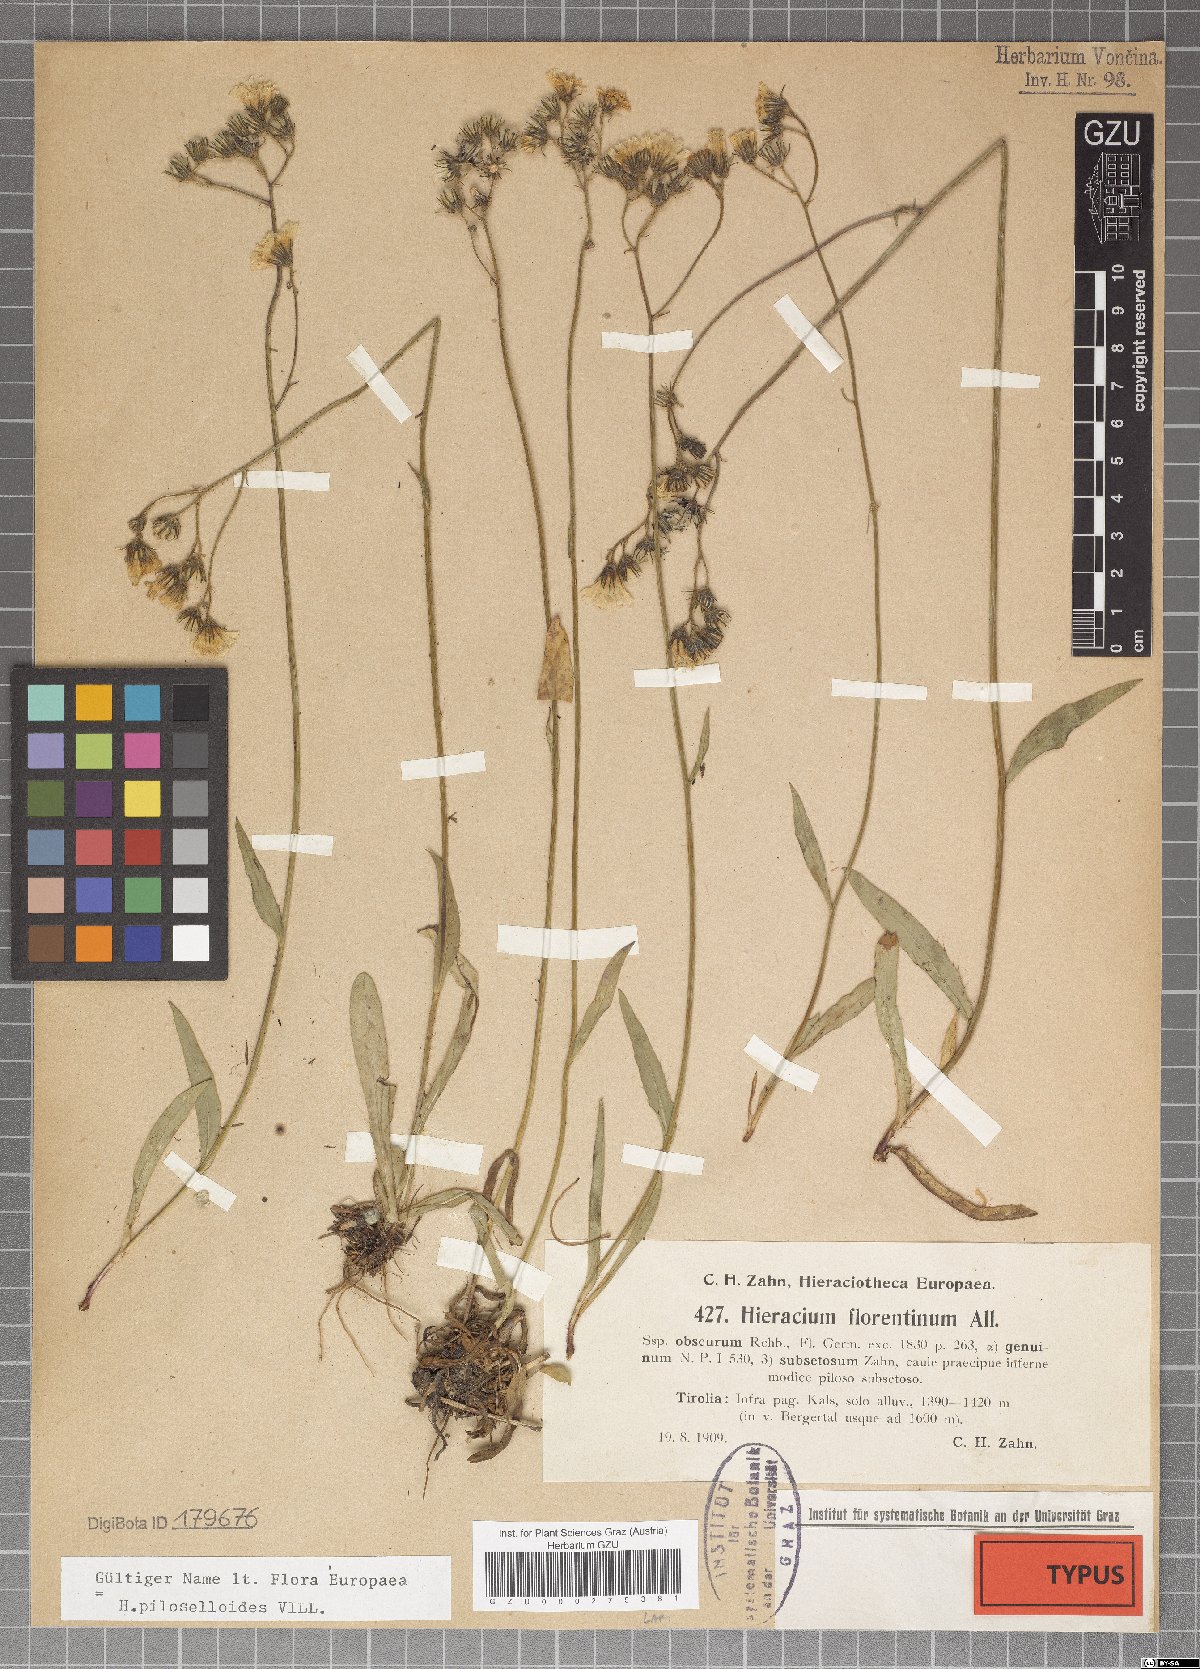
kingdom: Plantae
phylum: Tracheophyta
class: Magnoliopsida
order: Asterales
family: Asteraceae
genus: Hieracium
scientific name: Hieracium florentinum
